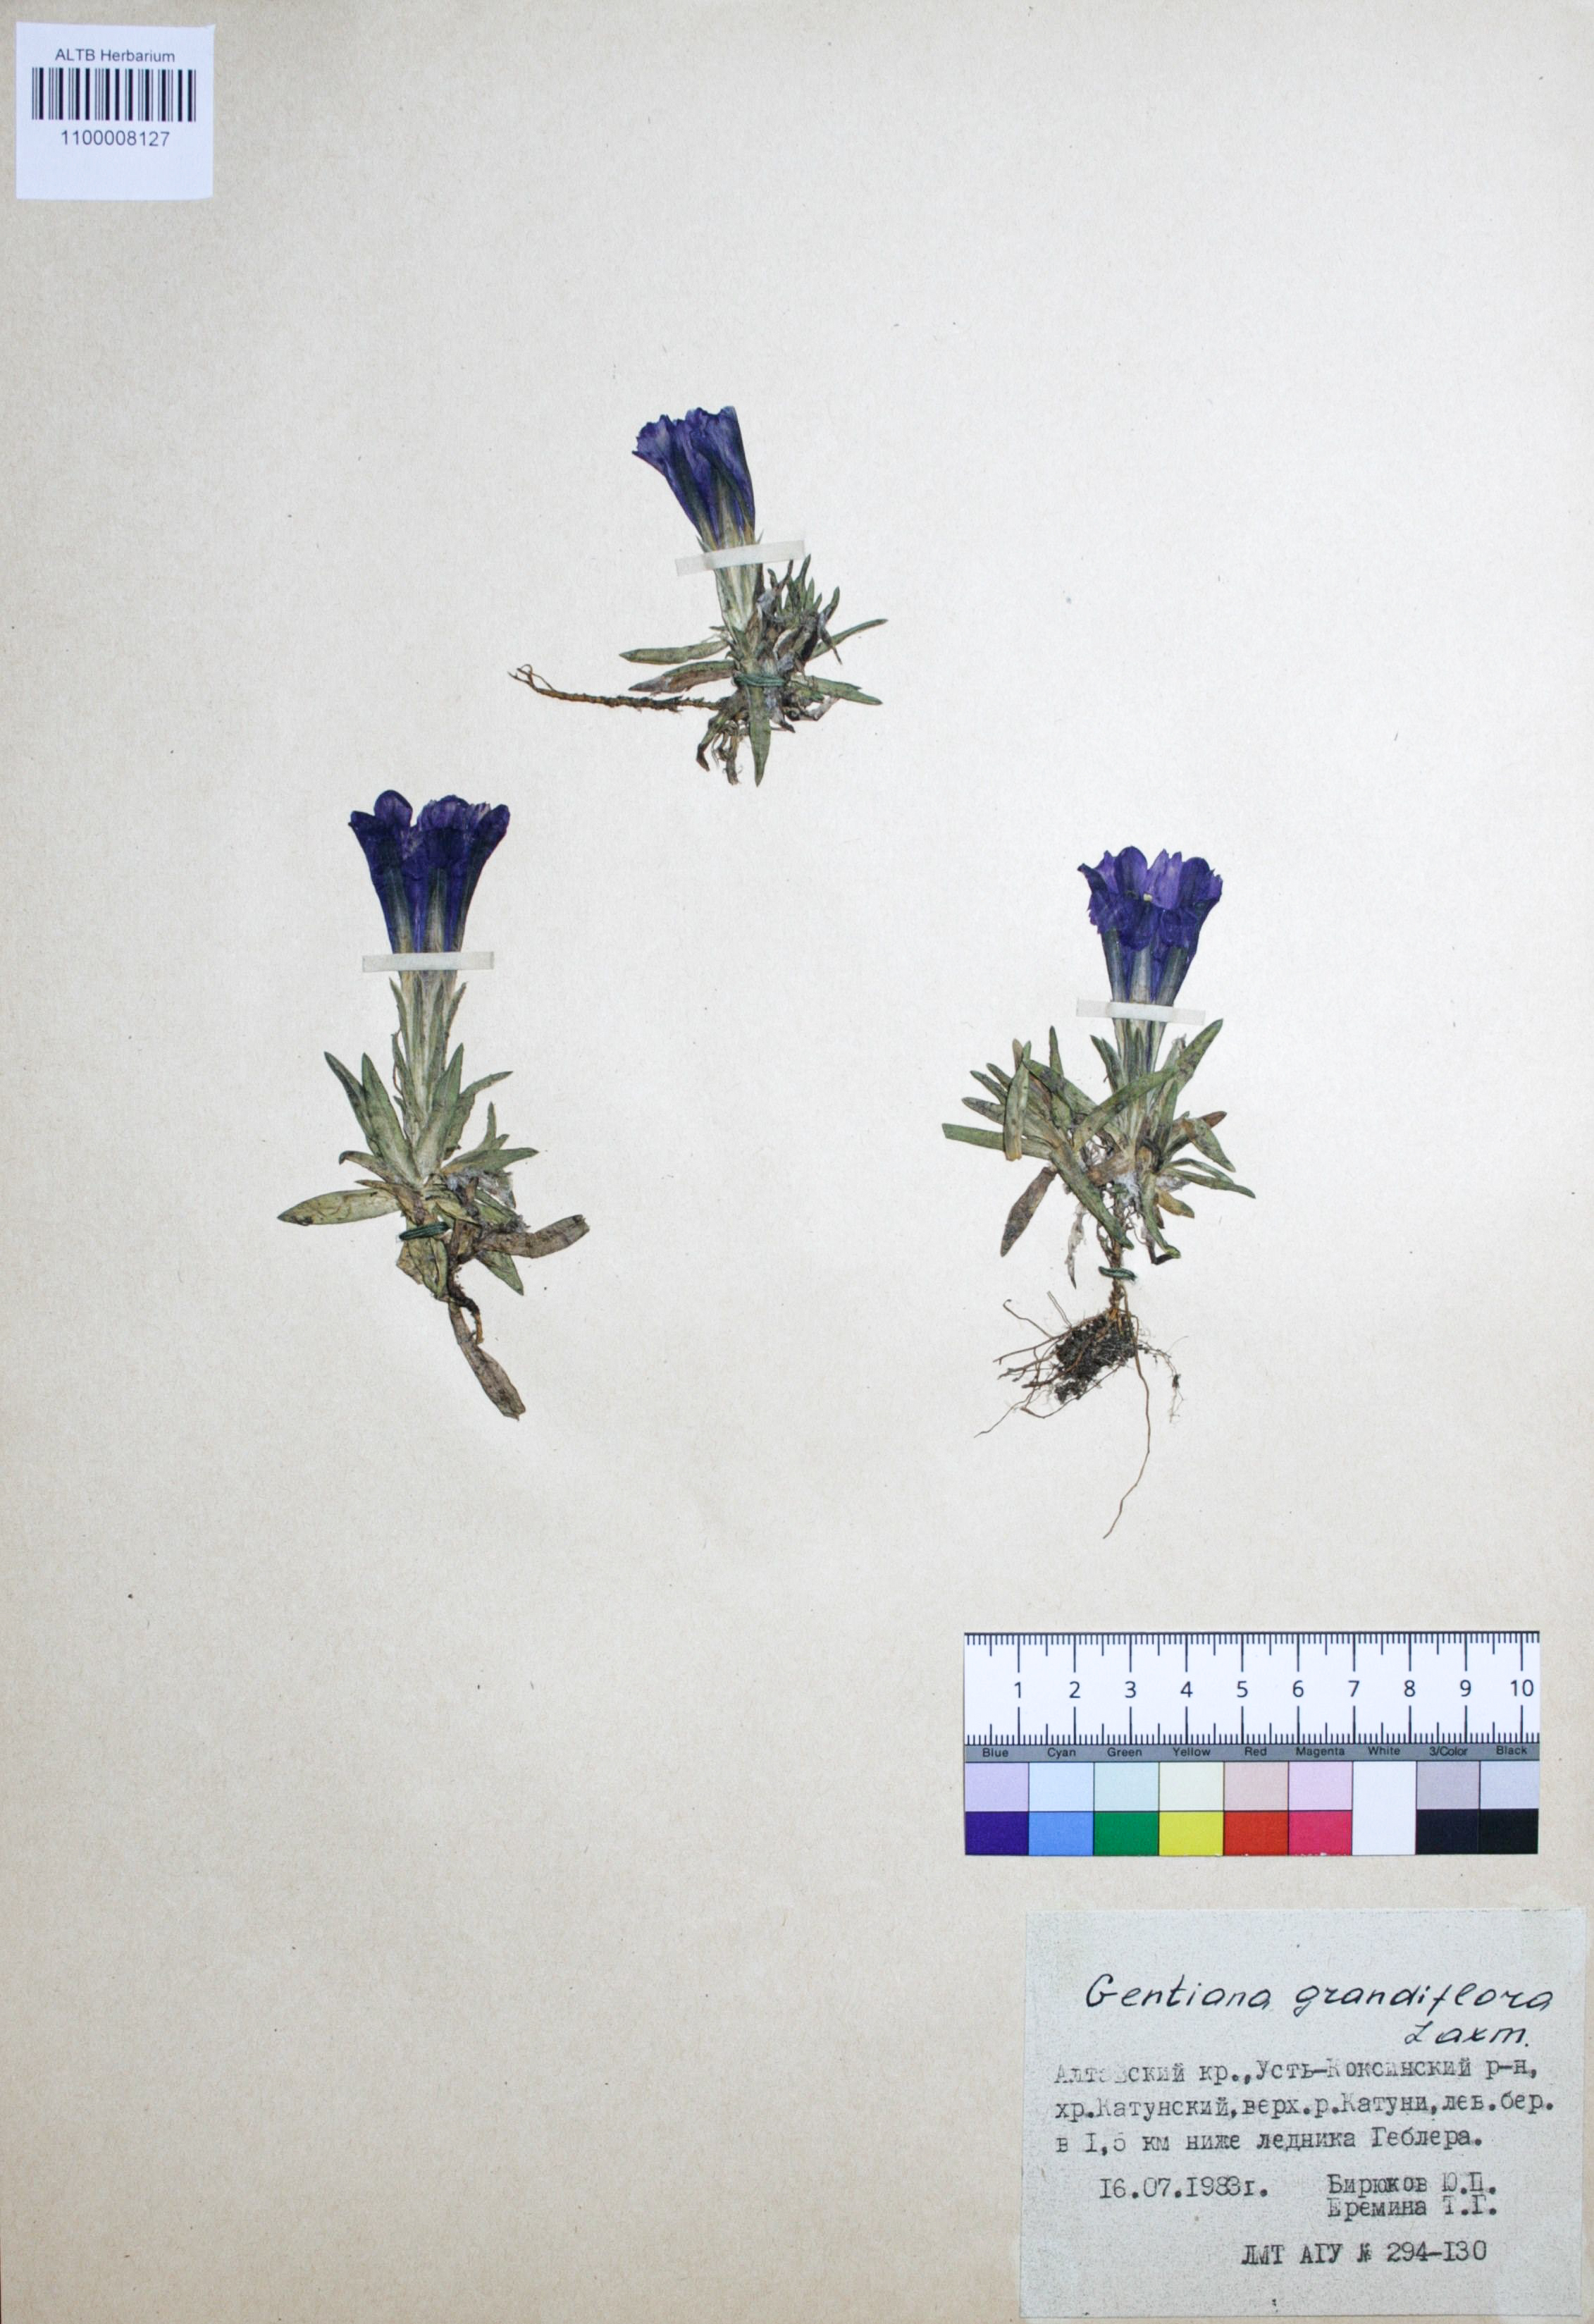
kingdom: Plantae
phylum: Tracheophyta
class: Magnoliopsida
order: Gentianales
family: Gentianaceae
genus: Gentiana
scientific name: Gentiana grandiflora
